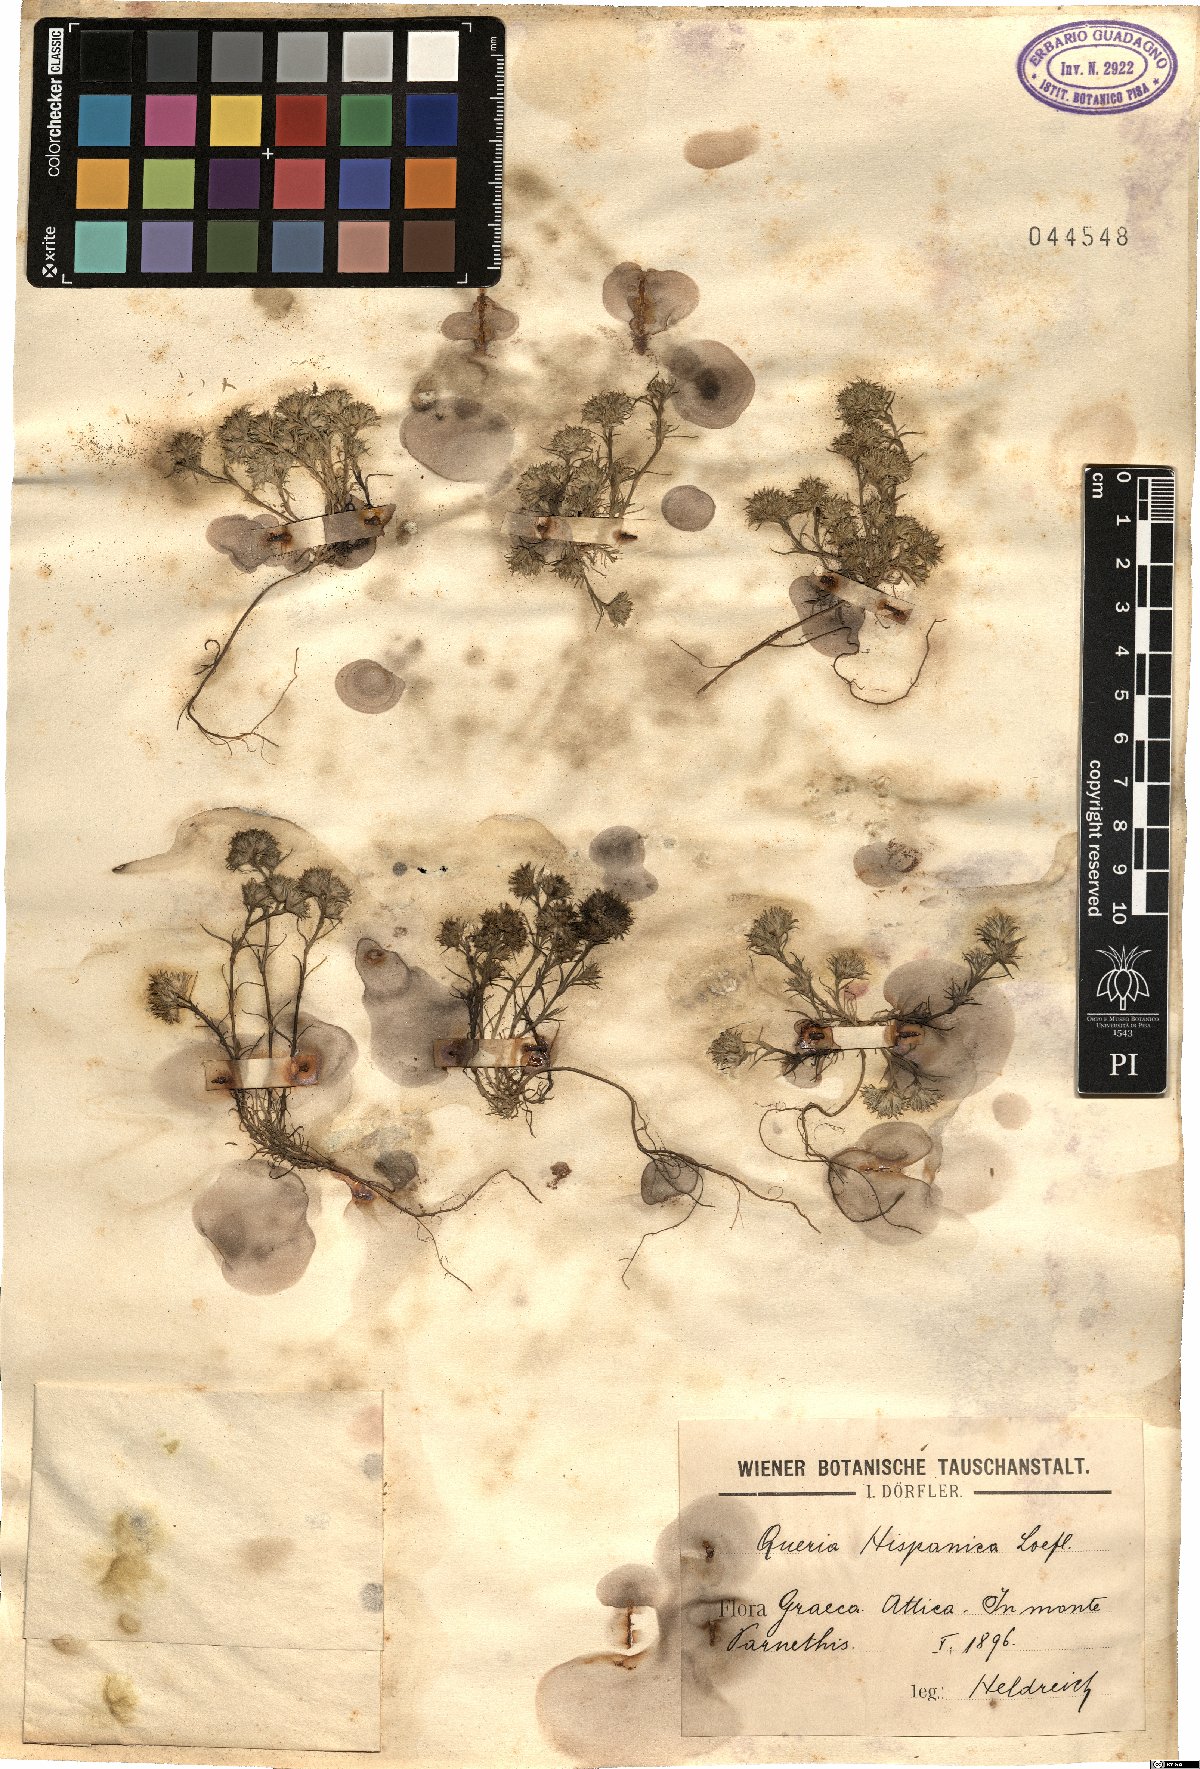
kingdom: Plantae
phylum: Tracheophyta
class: Magnoliopsida
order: Caryophyllales
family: Caryophyllaceae
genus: Minuartia
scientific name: Minuartia hamata
